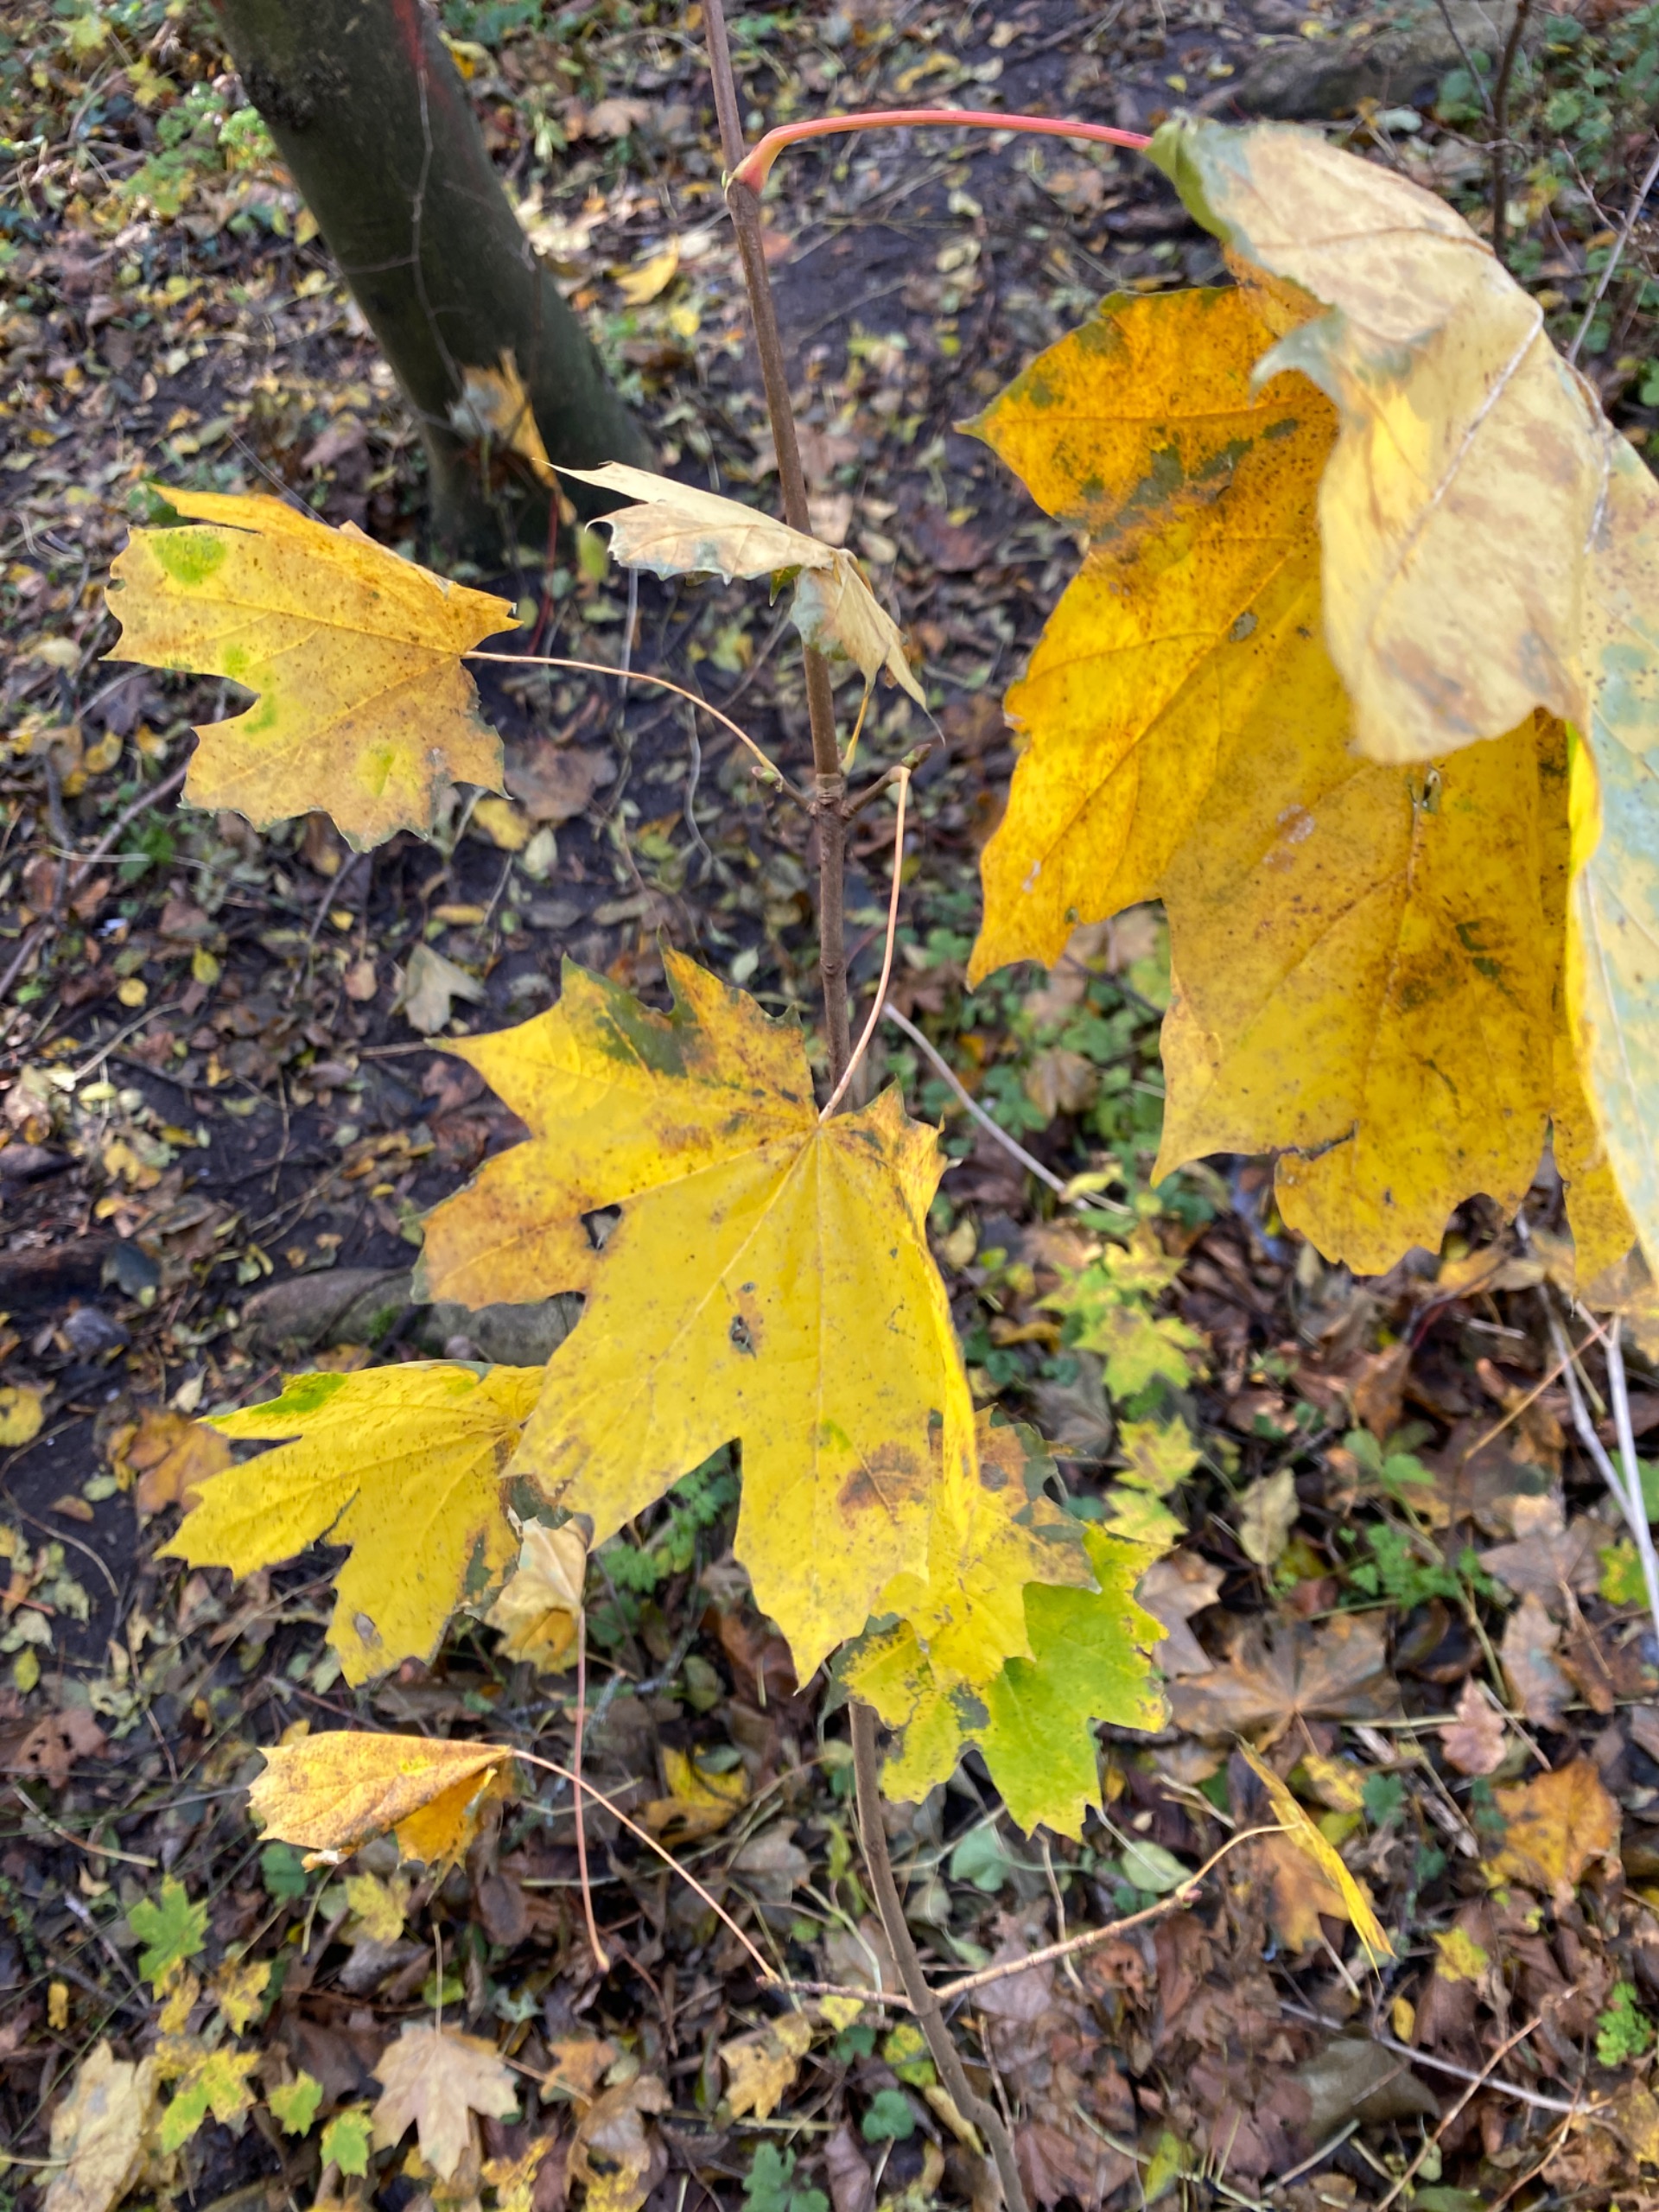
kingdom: Plantae
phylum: Tracheophyta
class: Magnoliopsida
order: Sapindales
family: Sapindaceae
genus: Acer
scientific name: Acer platanoides
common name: Spids-løn
